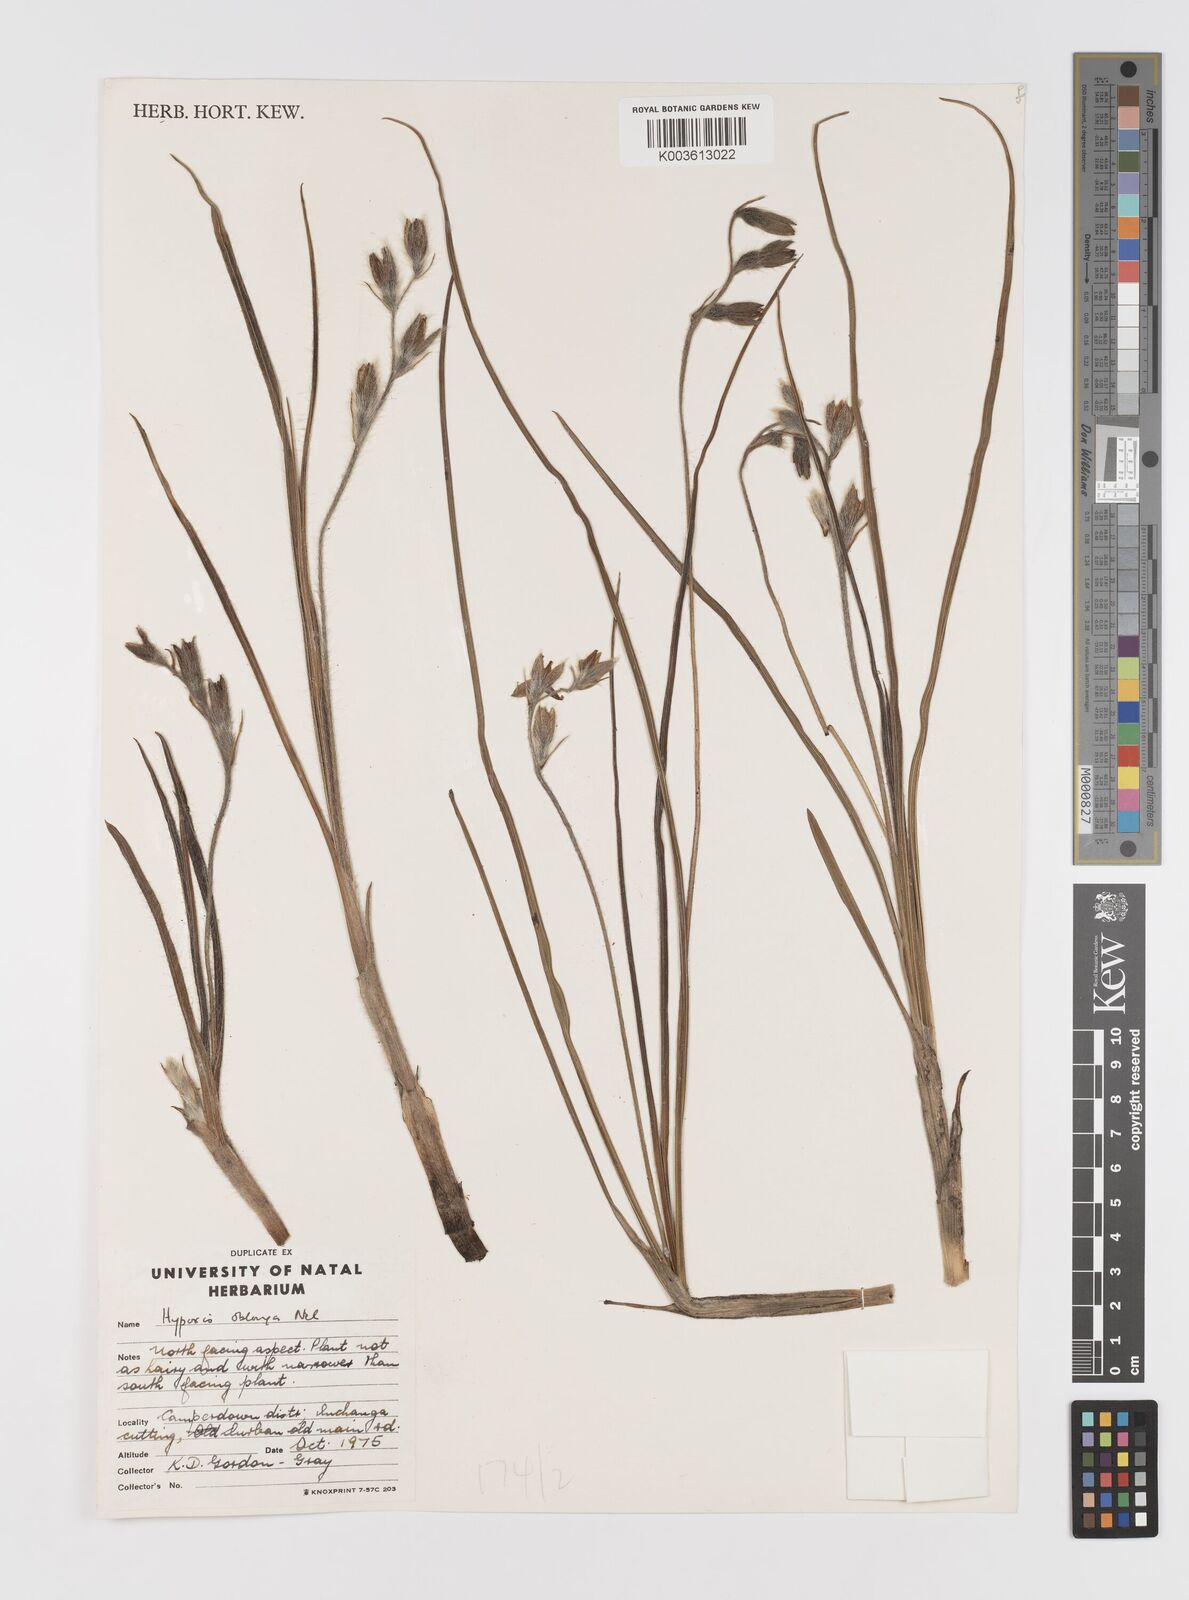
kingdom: Plantae
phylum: Tracheophyta
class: Liliopsida
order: Asparagales
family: Hypoxidaceae
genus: Hypoxis
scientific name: Hypoxis oblonga
